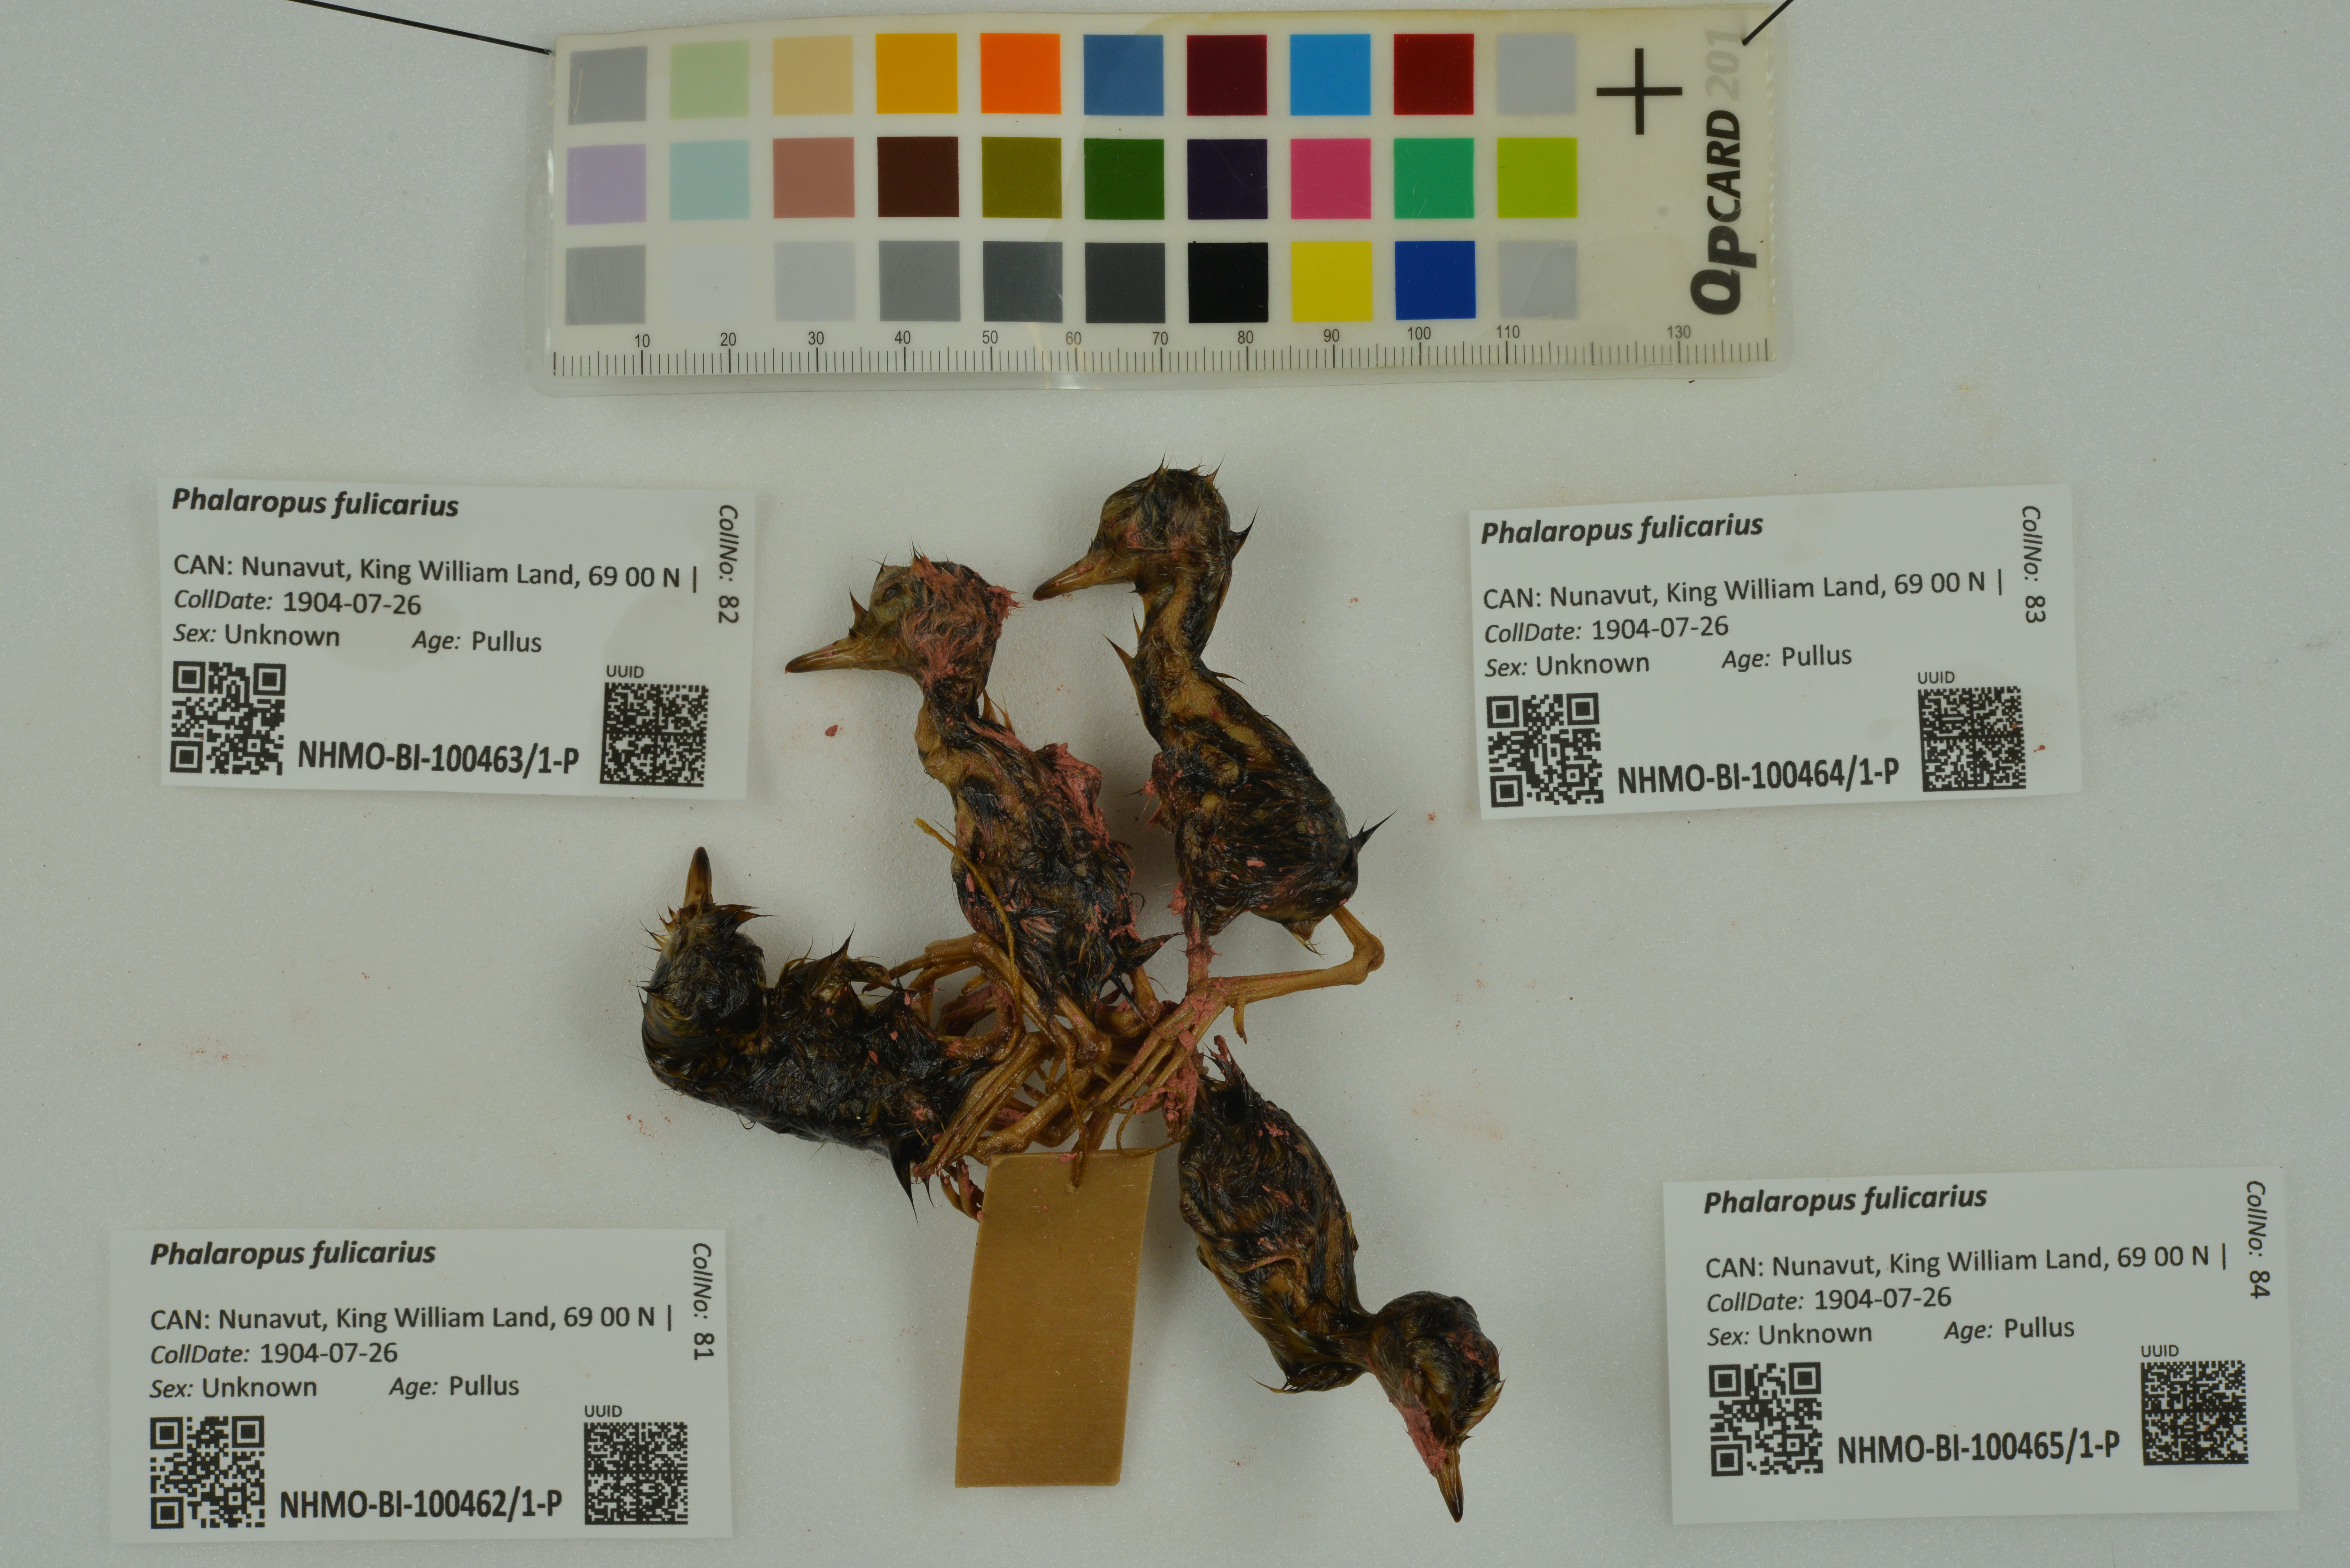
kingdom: Animalia
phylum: Chordata
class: Aves
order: Charadriiformes
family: Scolopacidae
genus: Phalaropus
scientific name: Phalaropus fulicarius
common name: Red phalarope
